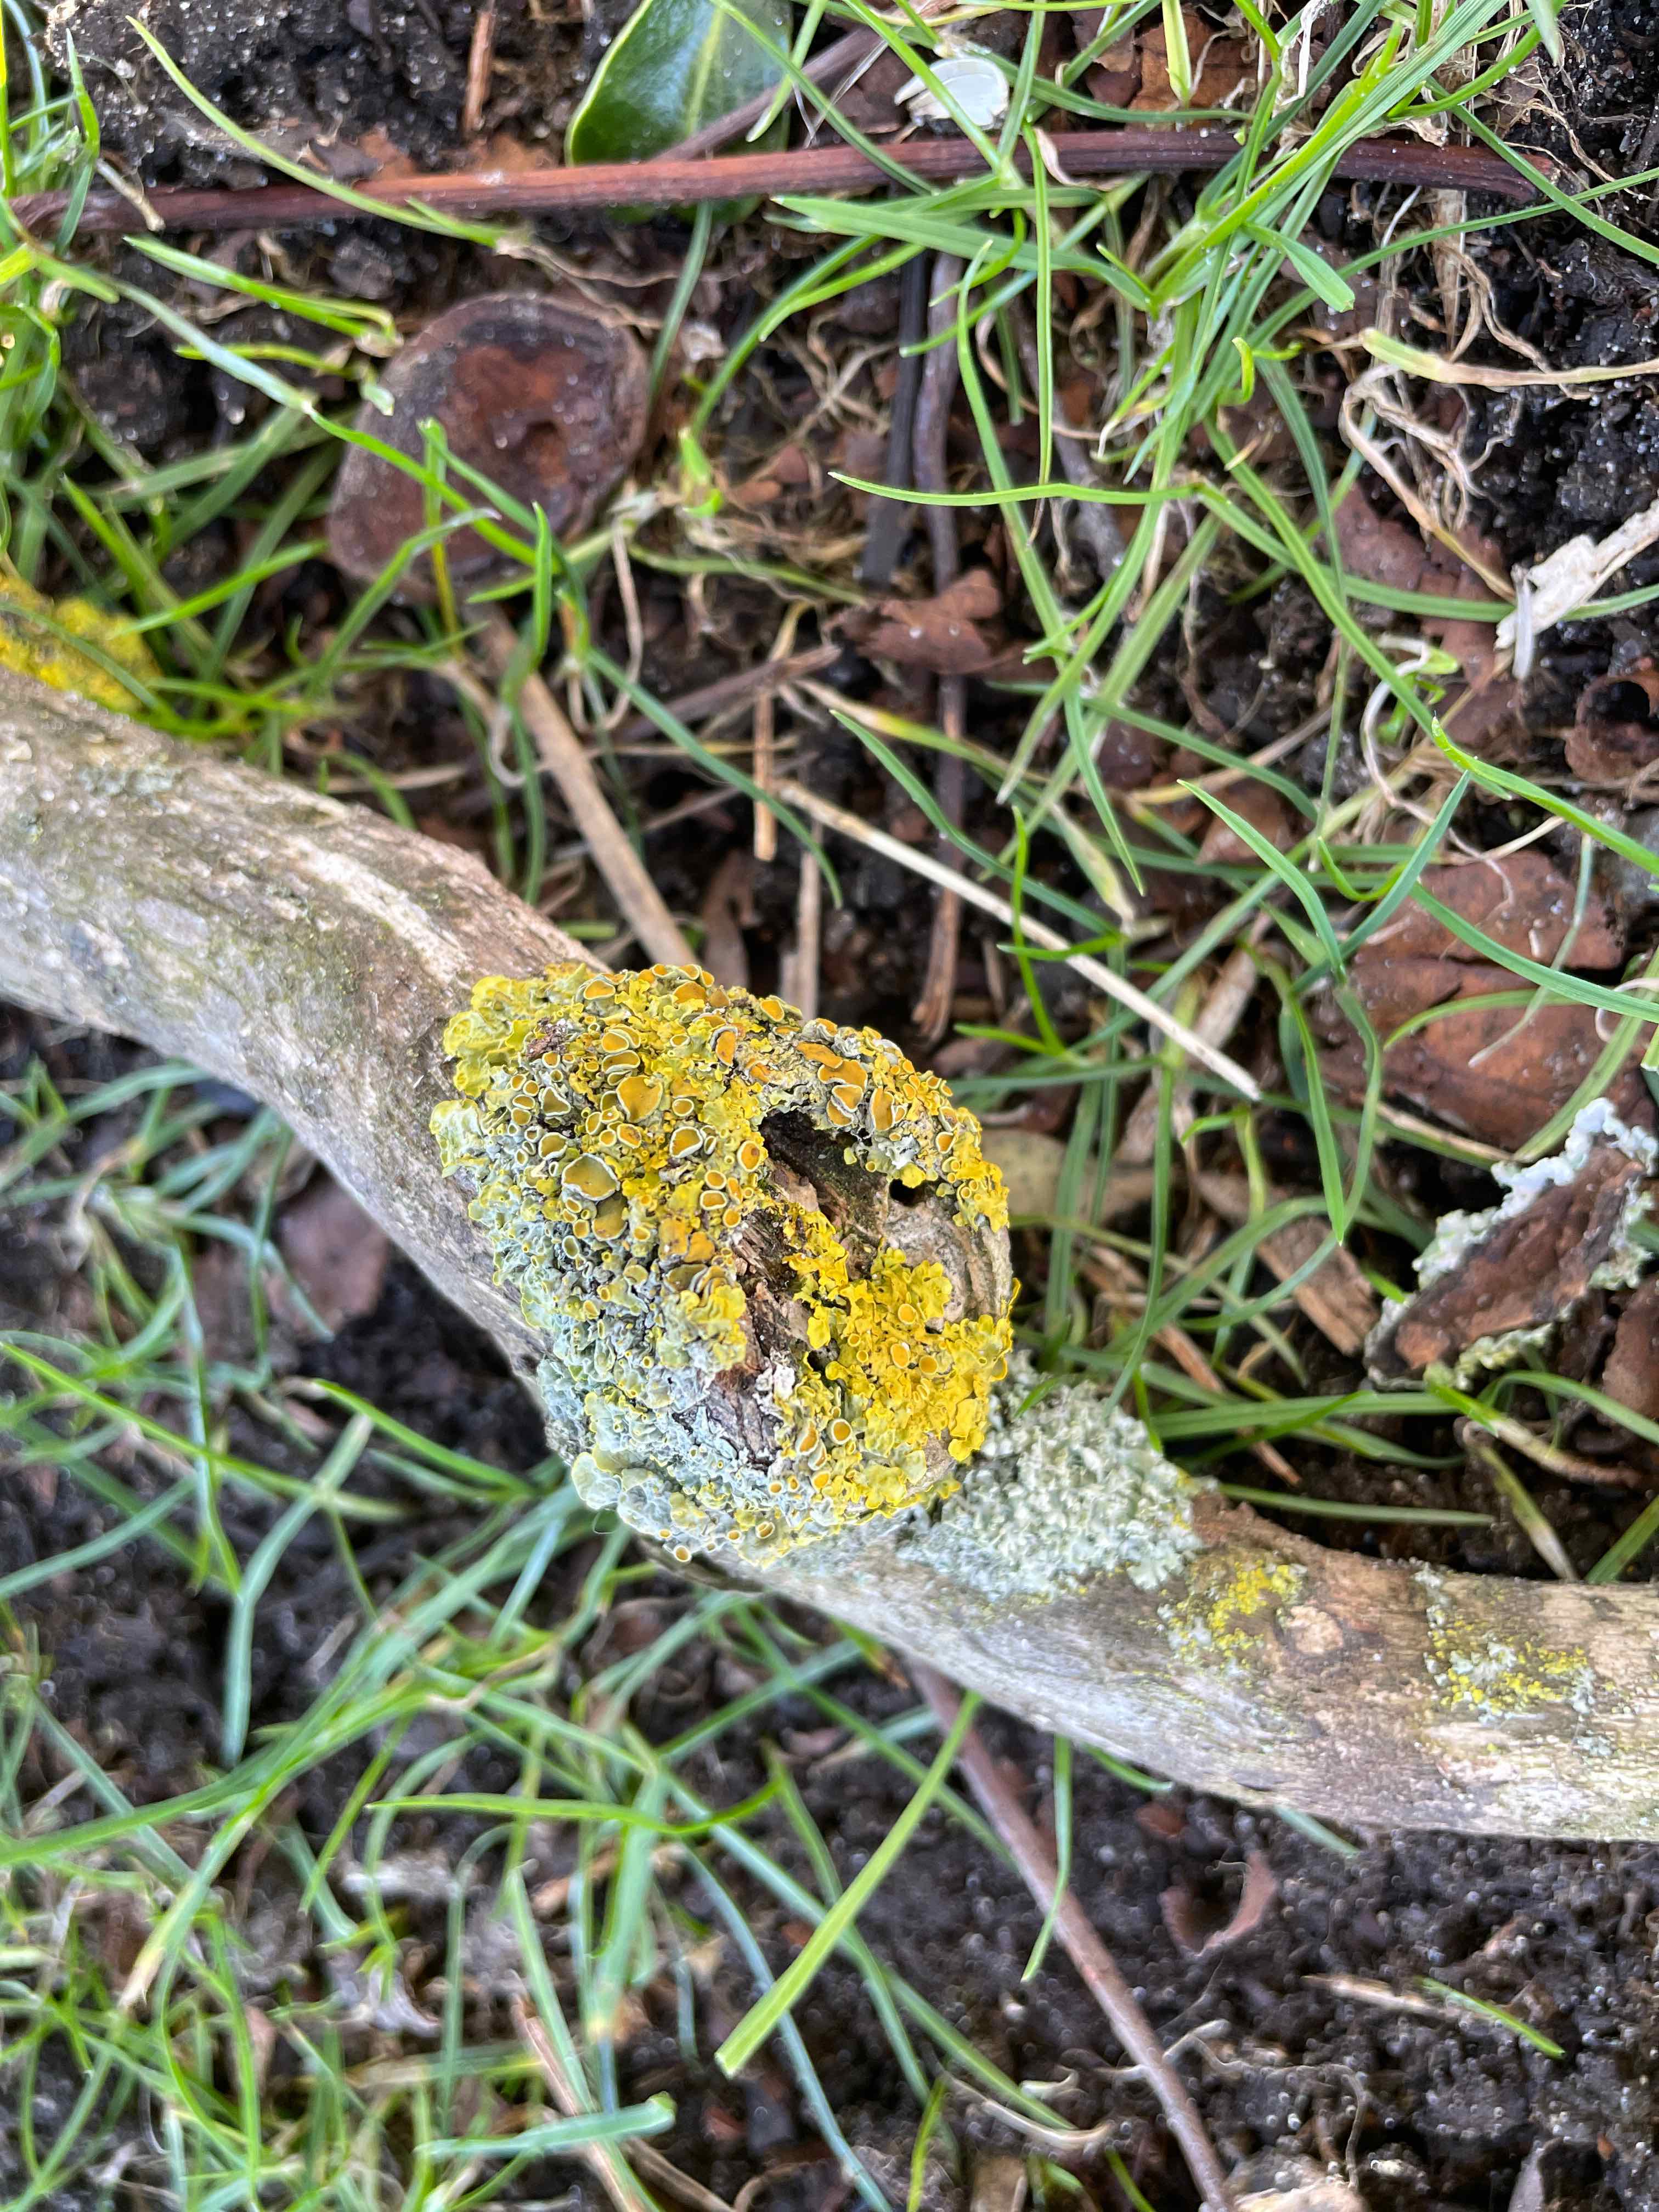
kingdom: Fungi
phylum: Ascomycota
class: Lecanoromycetes
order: Teloschistales
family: Teloschistaceae
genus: Xanthoria
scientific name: Xanthoria parietina
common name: almindelig væggelav
